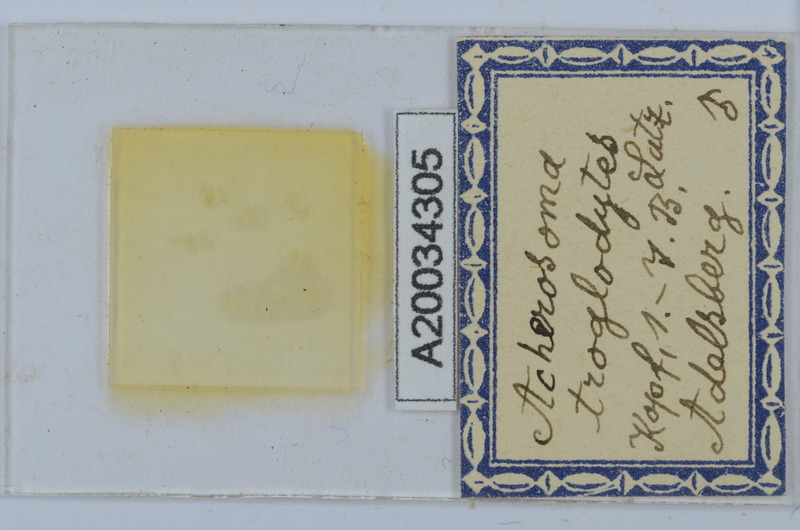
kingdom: Animalia
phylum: Arthropoda
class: Diplopoda
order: Chordeumatida
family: Anthogonidae
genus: Haasia
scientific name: Haasia troglodytes
